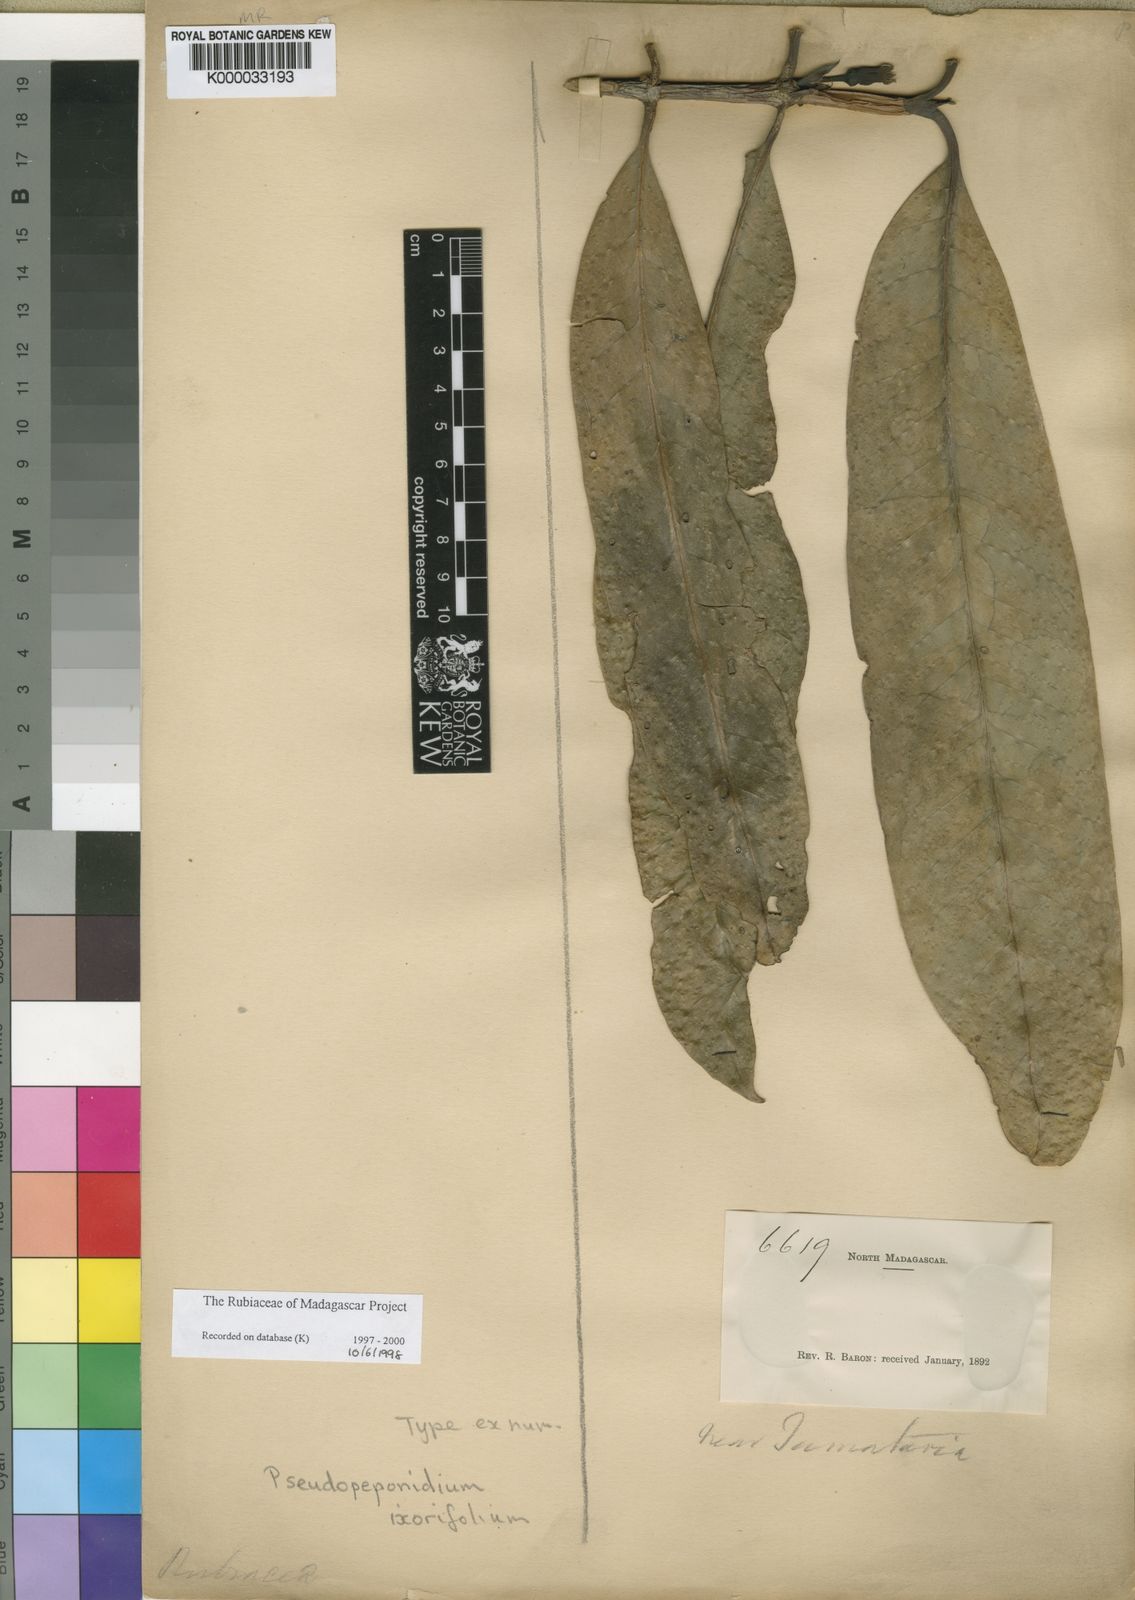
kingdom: Plantae
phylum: Tracheophyta
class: Magnoliopsida
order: Gentianales
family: Rubiaceae
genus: Pyrostria
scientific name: Pyrostria ixorifolia
